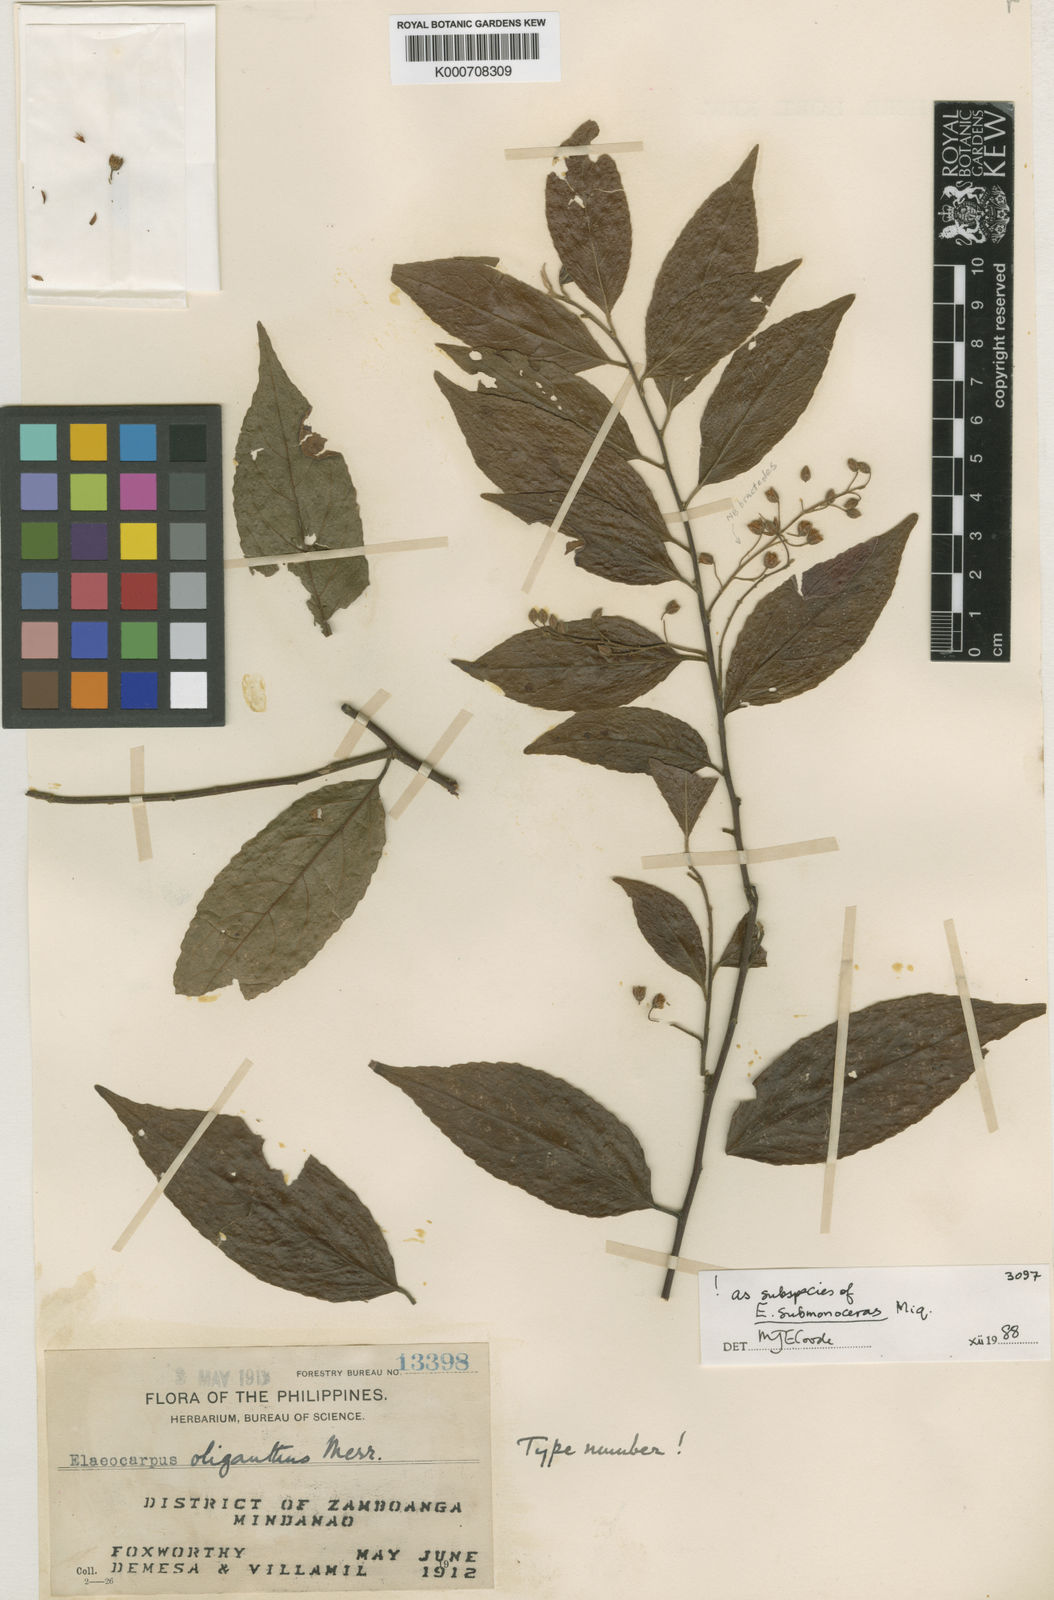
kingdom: Plantae
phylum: Tracheophyta
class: Magnoliopsida
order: Oxalidales
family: Elaeocarpaceae
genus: Elaeocarpus
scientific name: Elaeocarpus submonoceras
